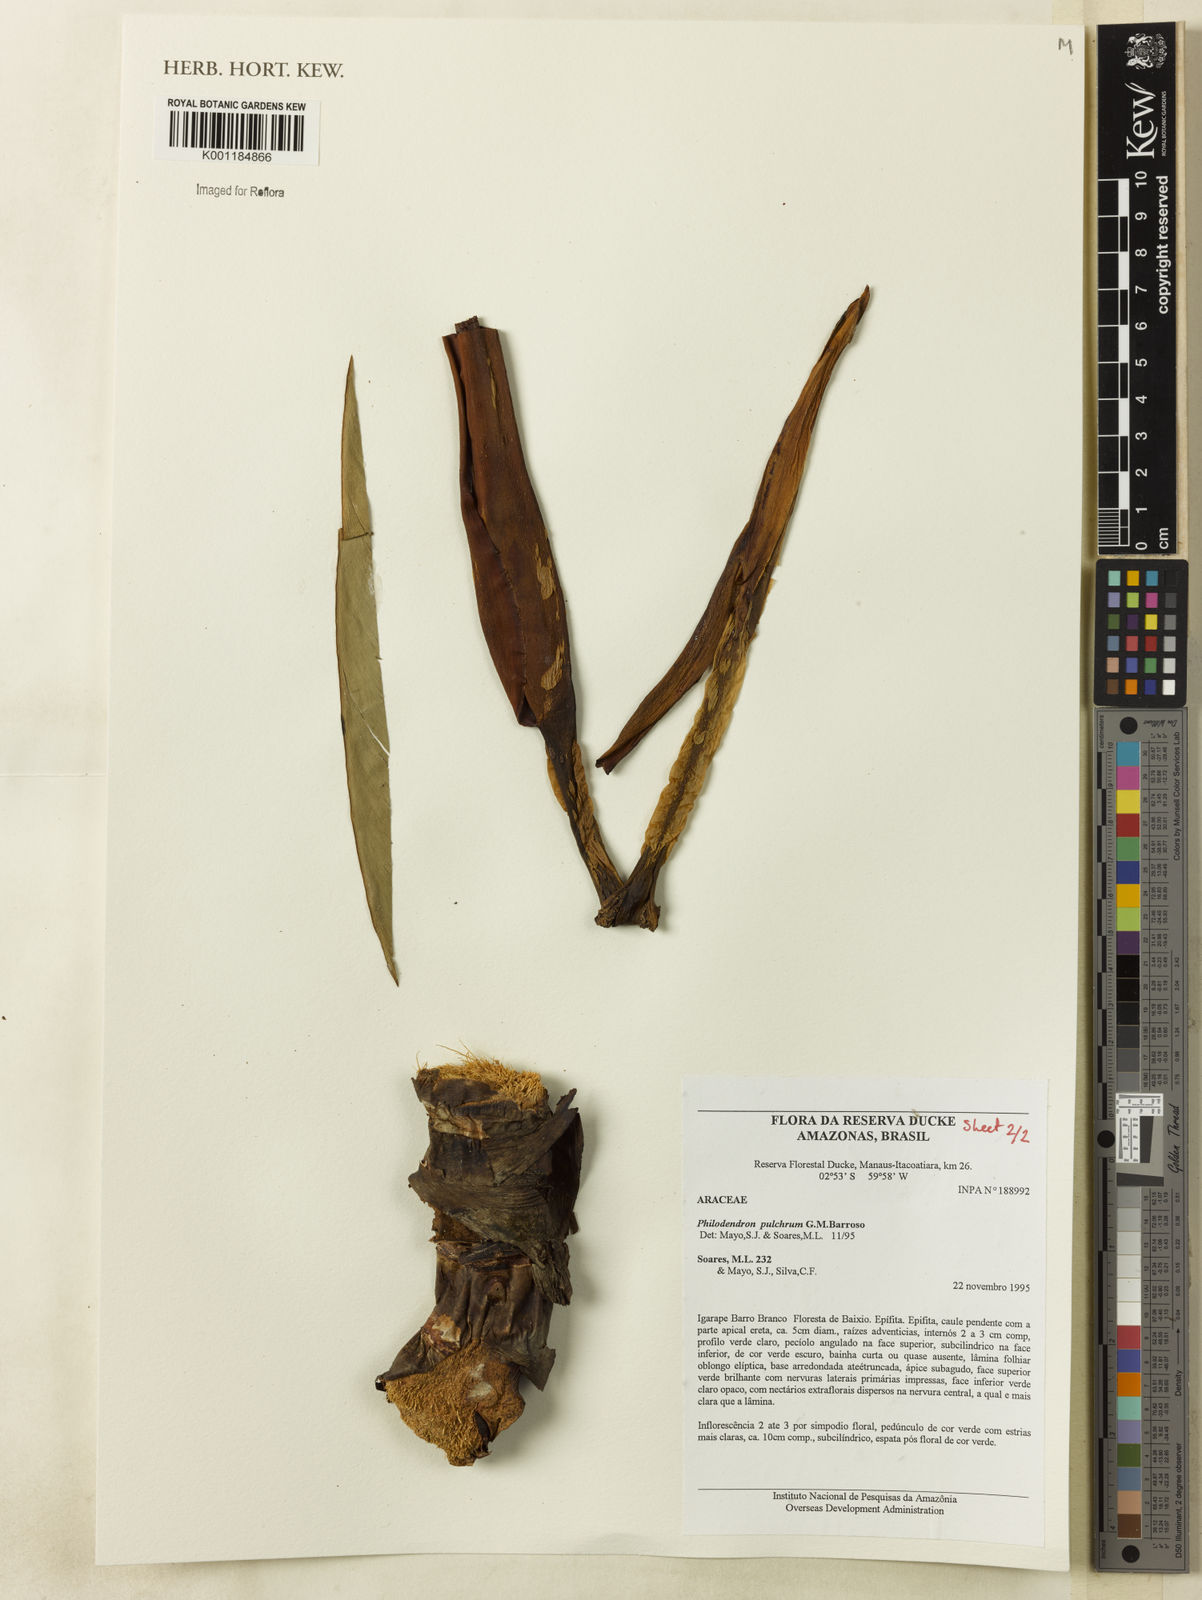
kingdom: Plantae
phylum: Tracheophyta
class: Liliopsida
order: Alismatales
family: Araceae
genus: Philodendron
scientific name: Philodendron pulchrum
